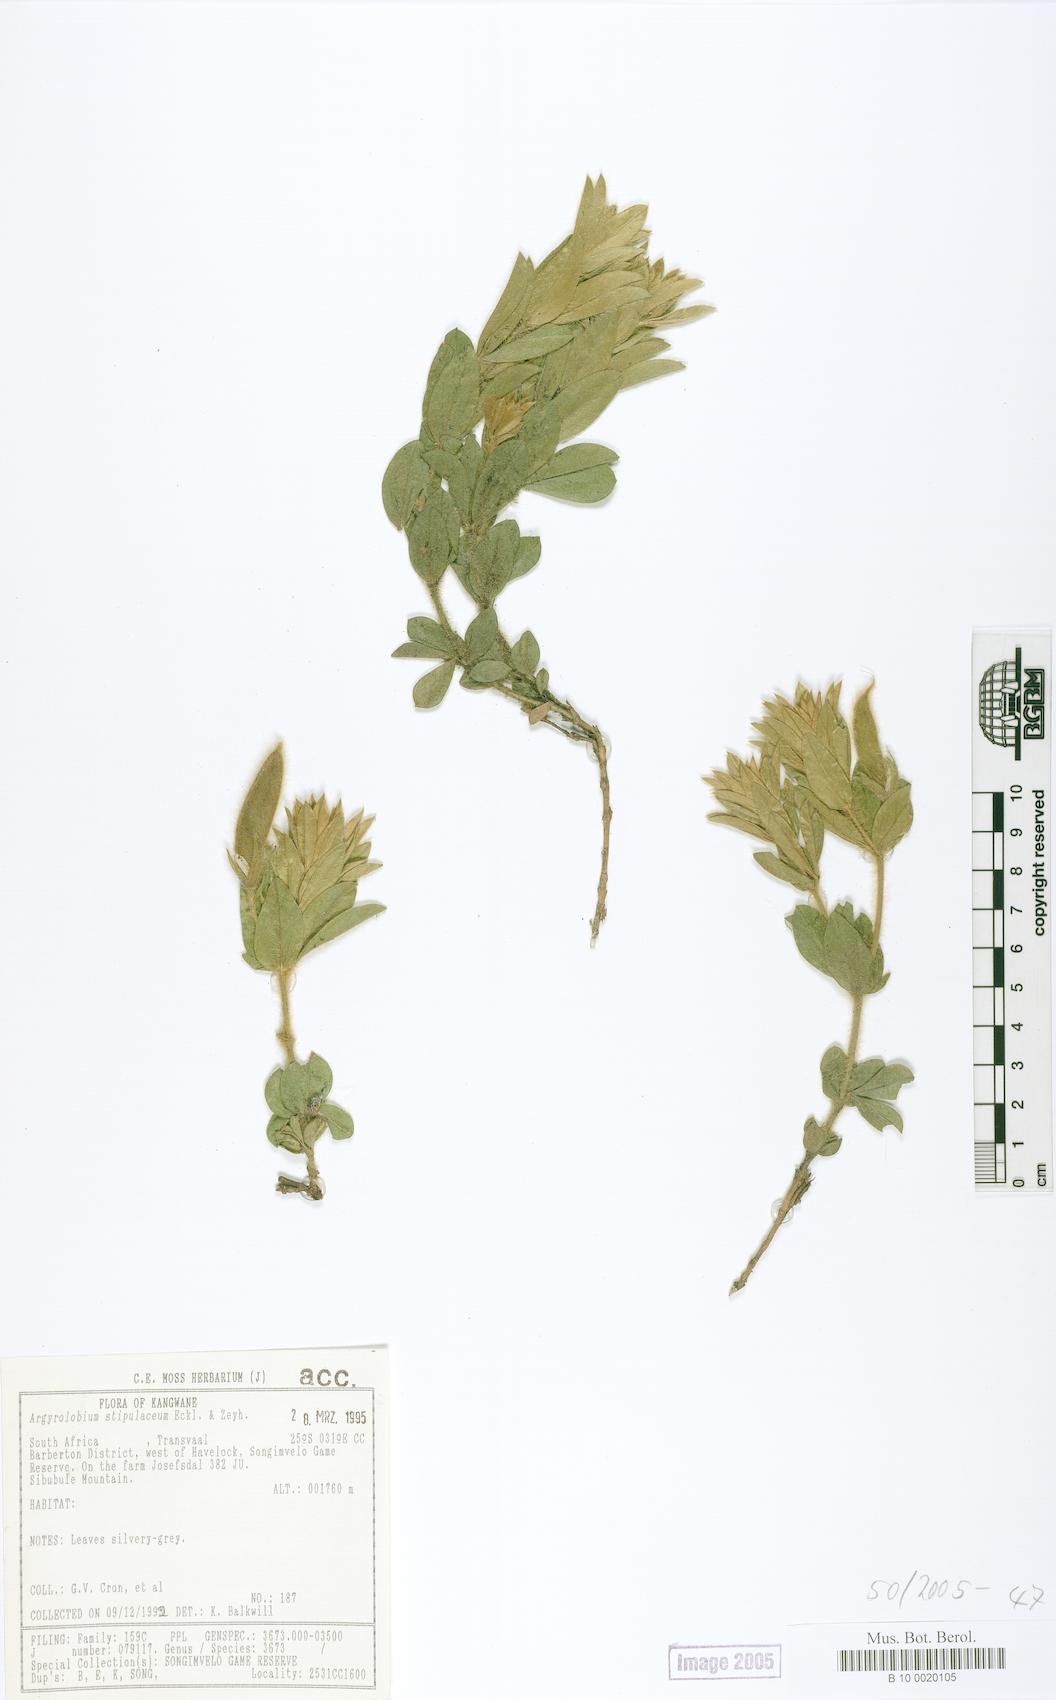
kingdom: Plantae
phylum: Tracheophyta
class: Magnoliopsida
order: Fabales
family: Fabaceae
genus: Argyrolobium
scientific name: Argyrolobium stipulaceum
